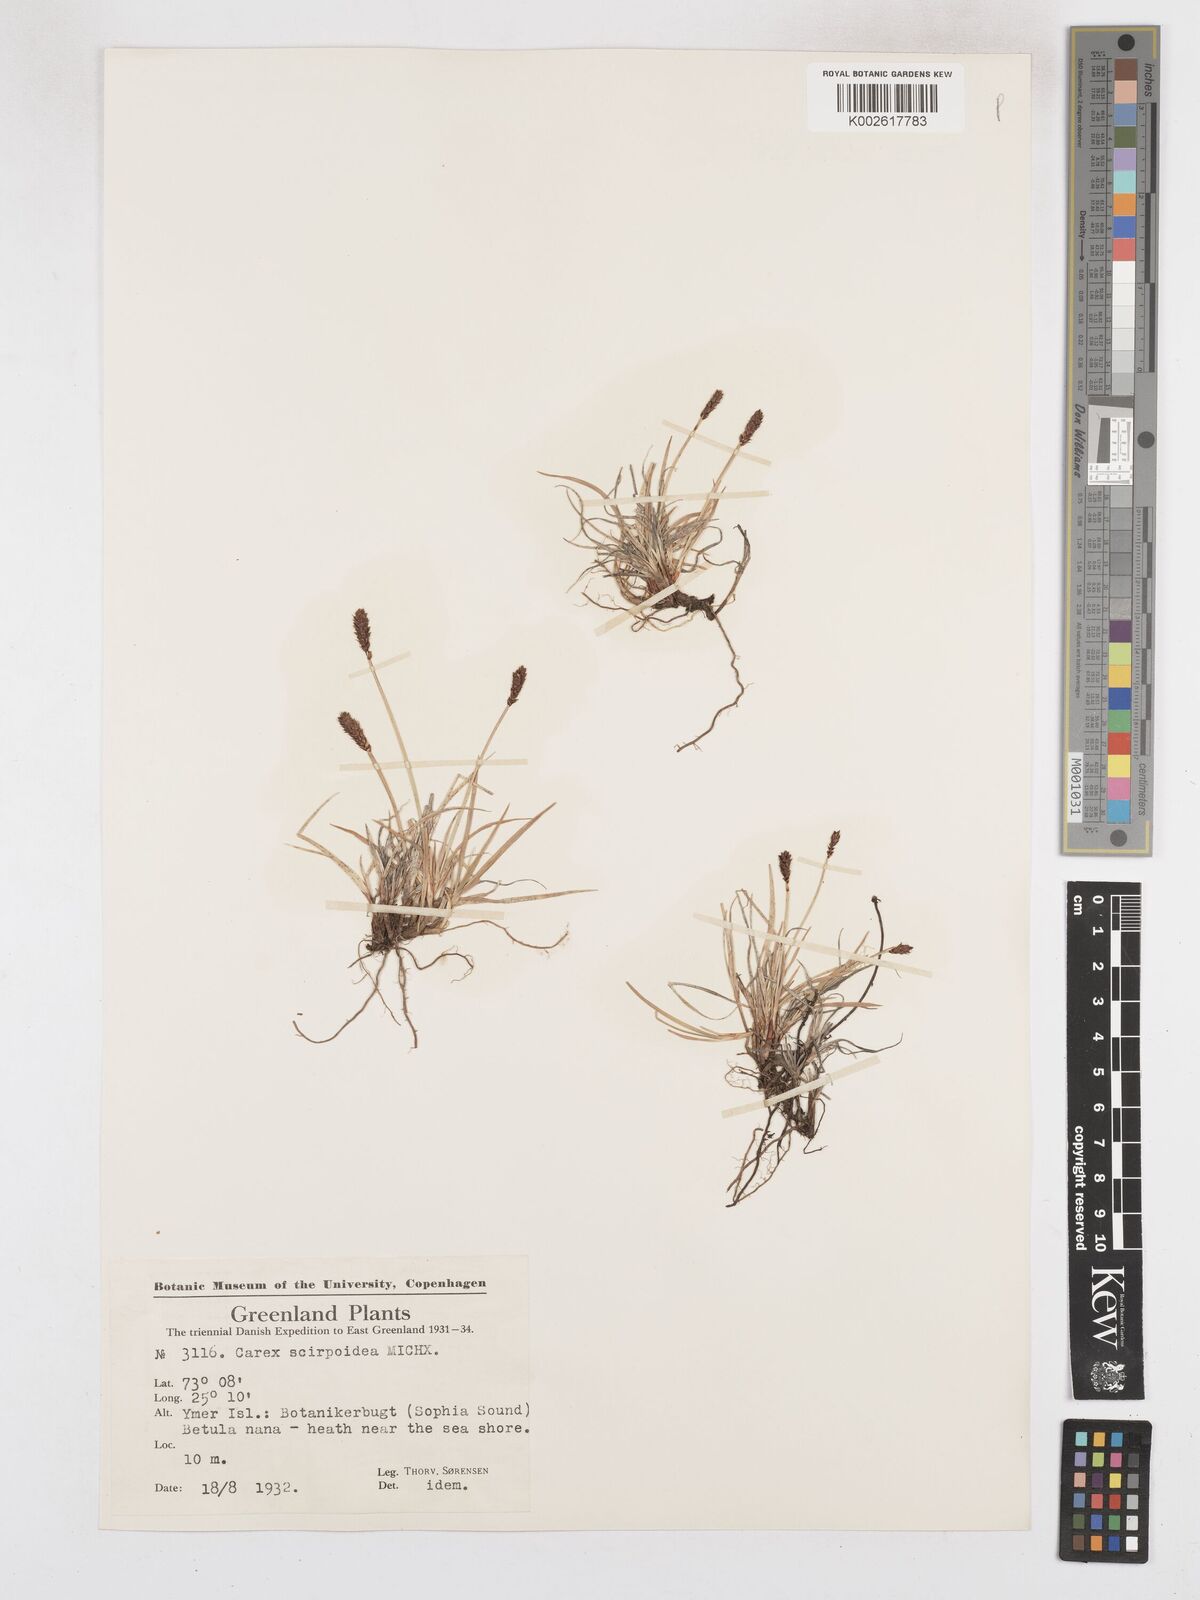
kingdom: Plantae
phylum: Tracheophyta
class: Liliopsida
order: Poales
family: Cyperaceae
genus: Carex
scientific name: Carex scirpoidea
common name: Canada single-spike sedge
